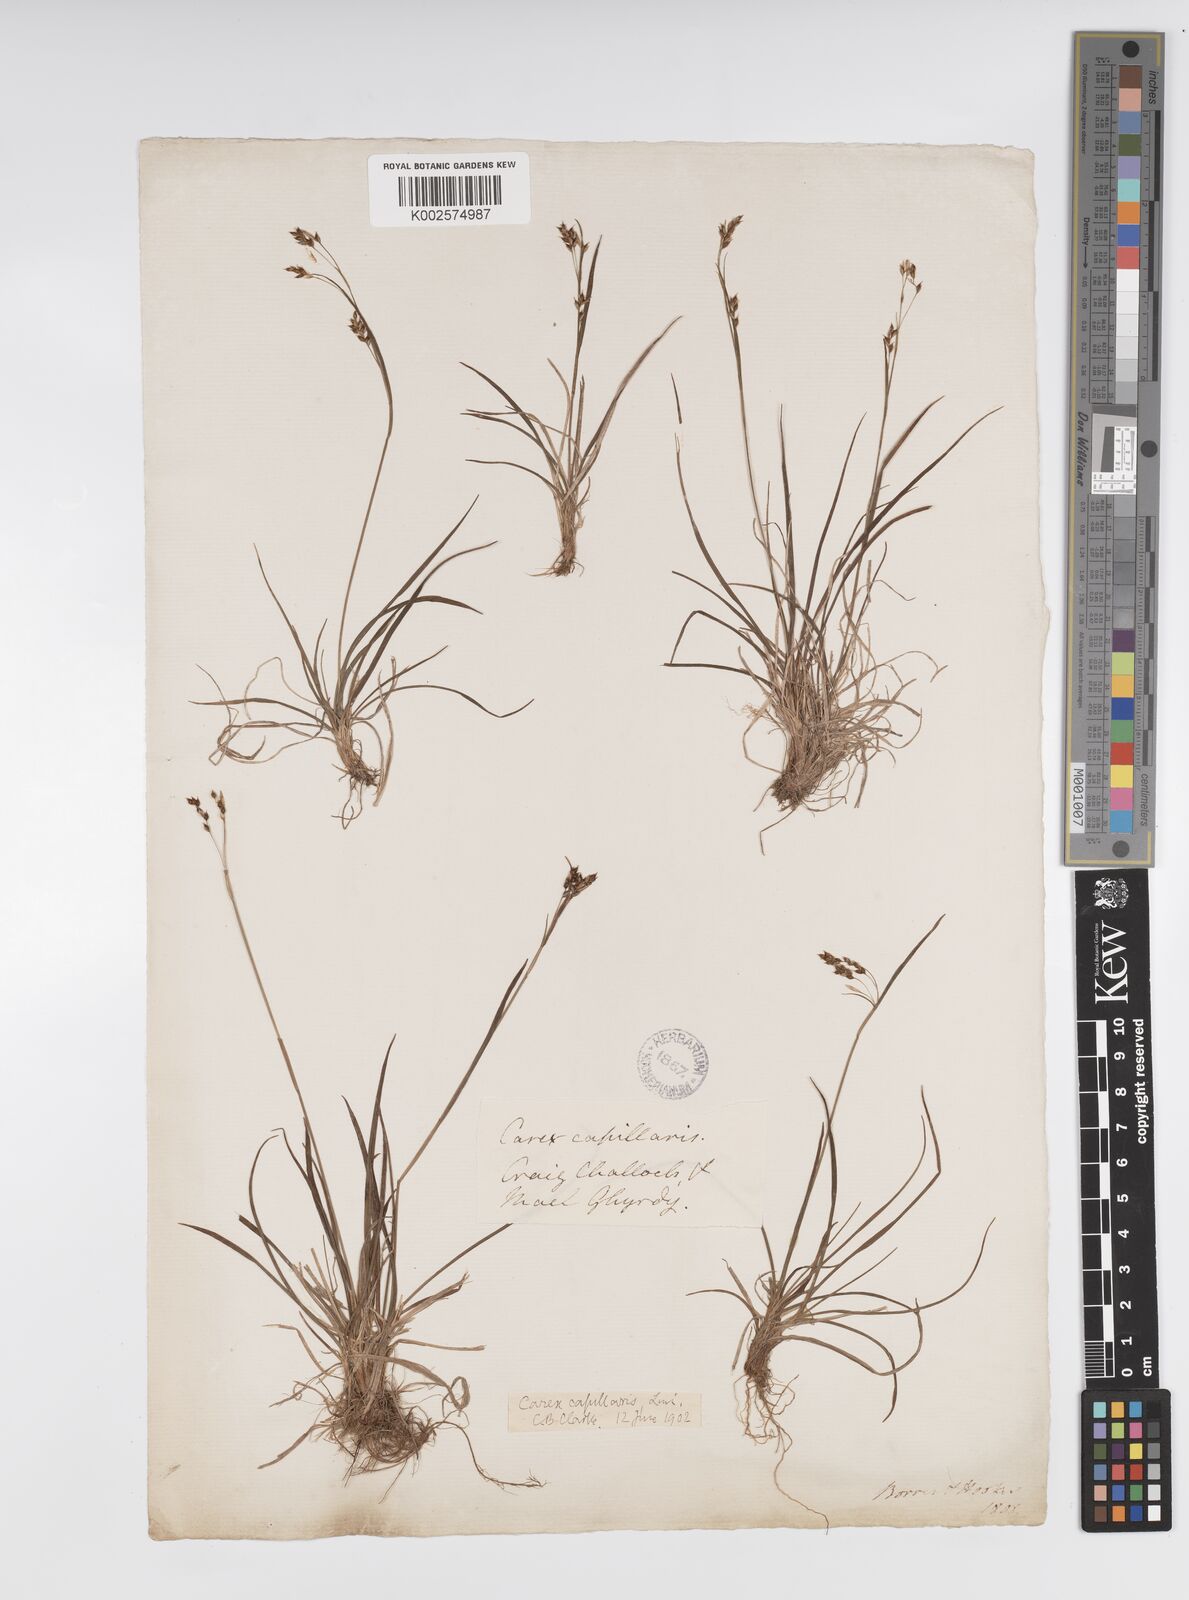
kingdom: Plantae
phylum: Tracheophyta
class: Liliopsida
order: Poales
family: Cyperaceae
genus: Carex
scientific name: Carex capillaris
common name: Hair sedge
